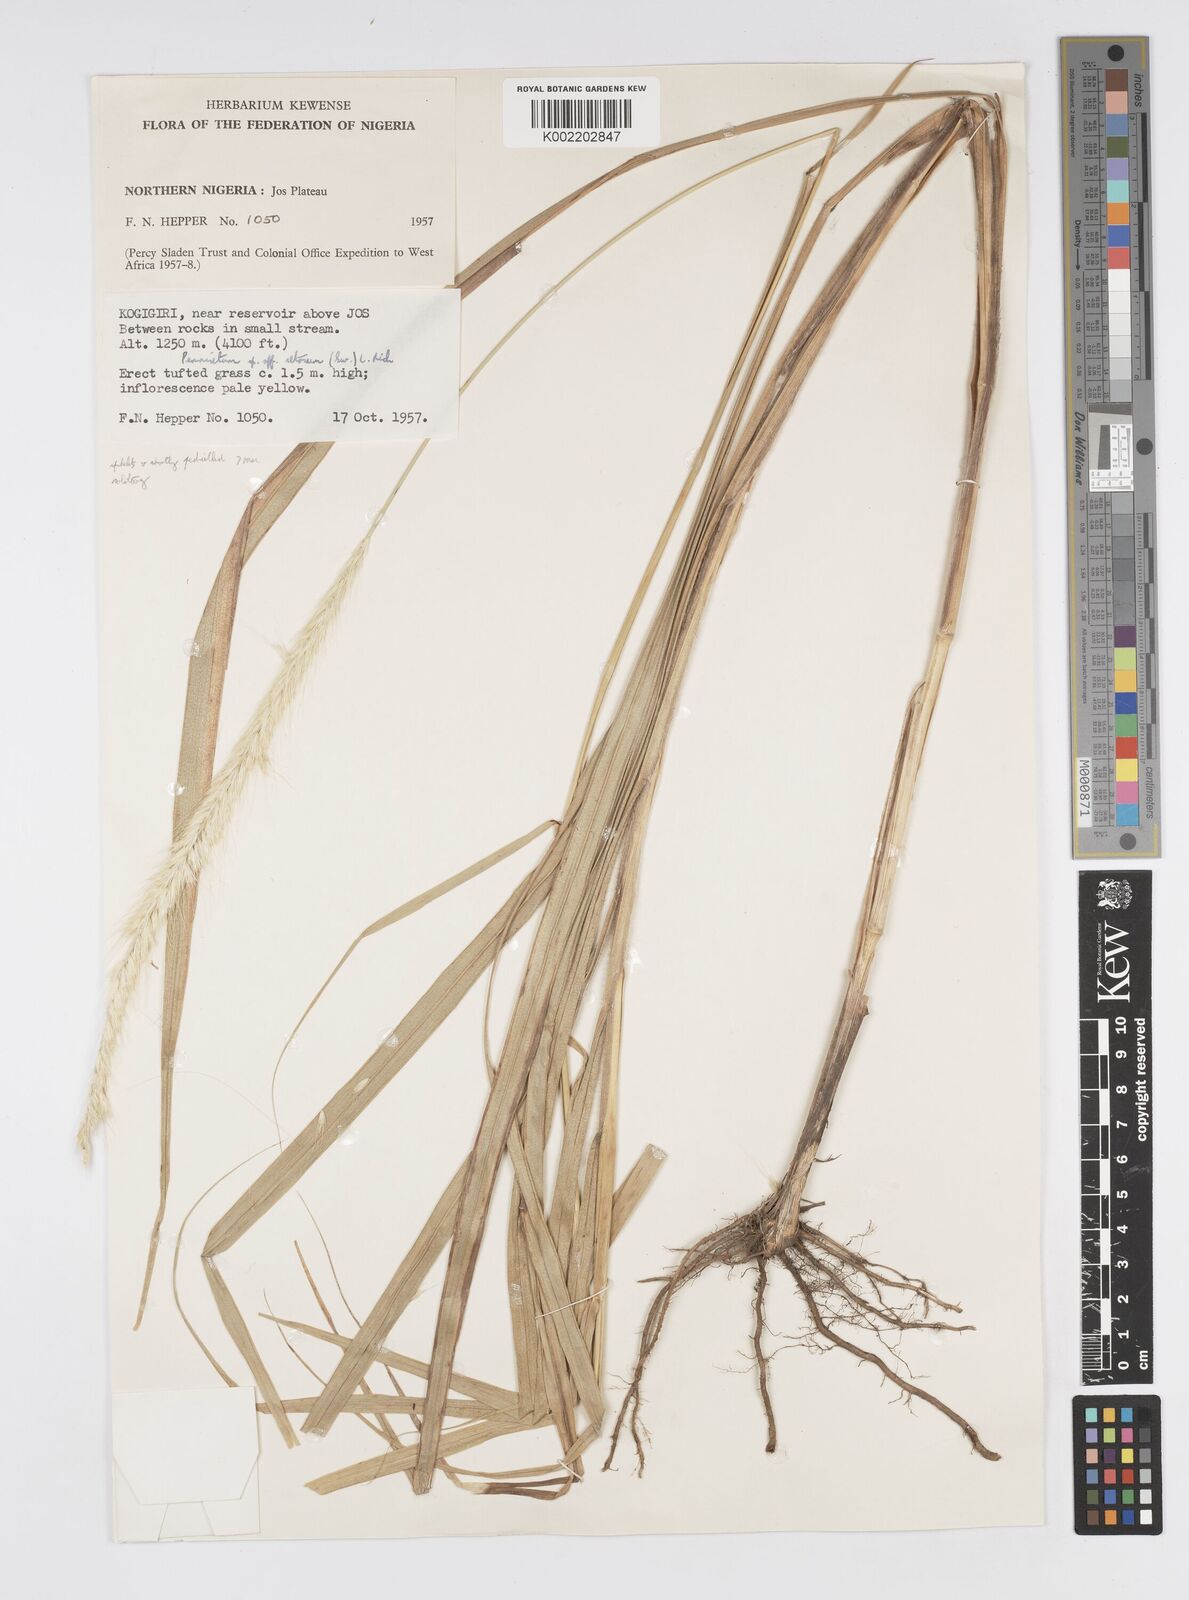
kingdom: Plantae
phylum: Tracheophyta
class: Liliopsida
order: Poales
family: Poaceae
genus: Cenchrus
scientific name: Cenchrus Pennisetum spec
